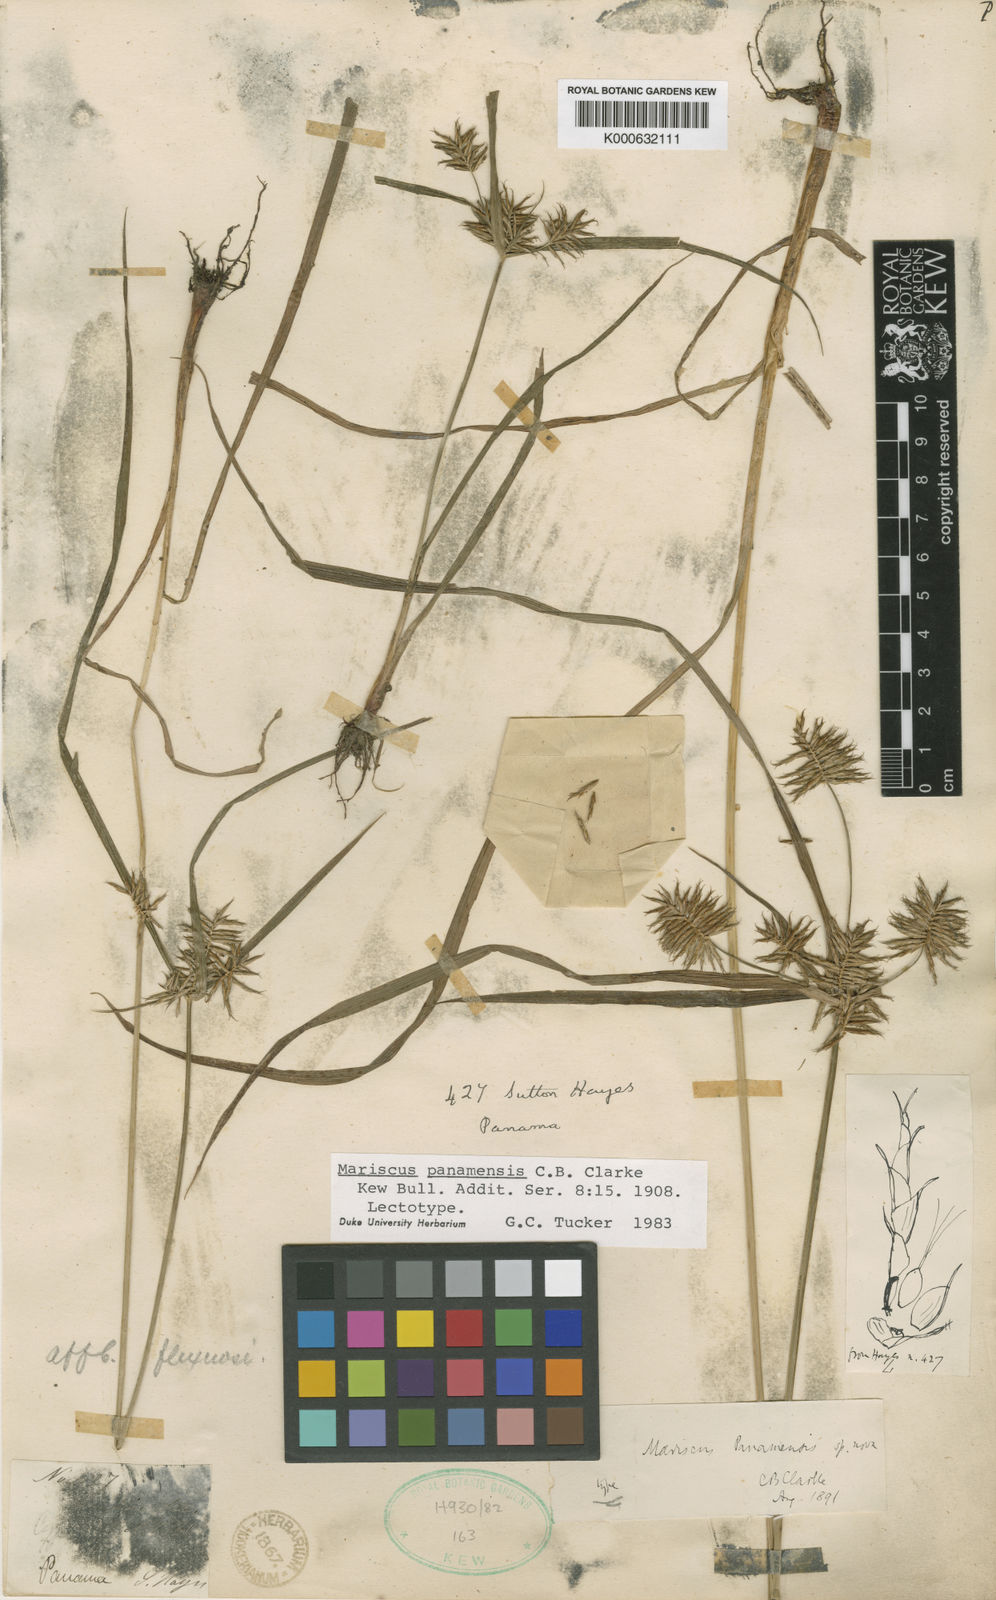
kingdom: Plantae
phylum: Tracheophyta
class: Liliopsida
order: Poales
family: Cyperaceae
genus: Cyperus
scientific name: Cyperus panamensis
